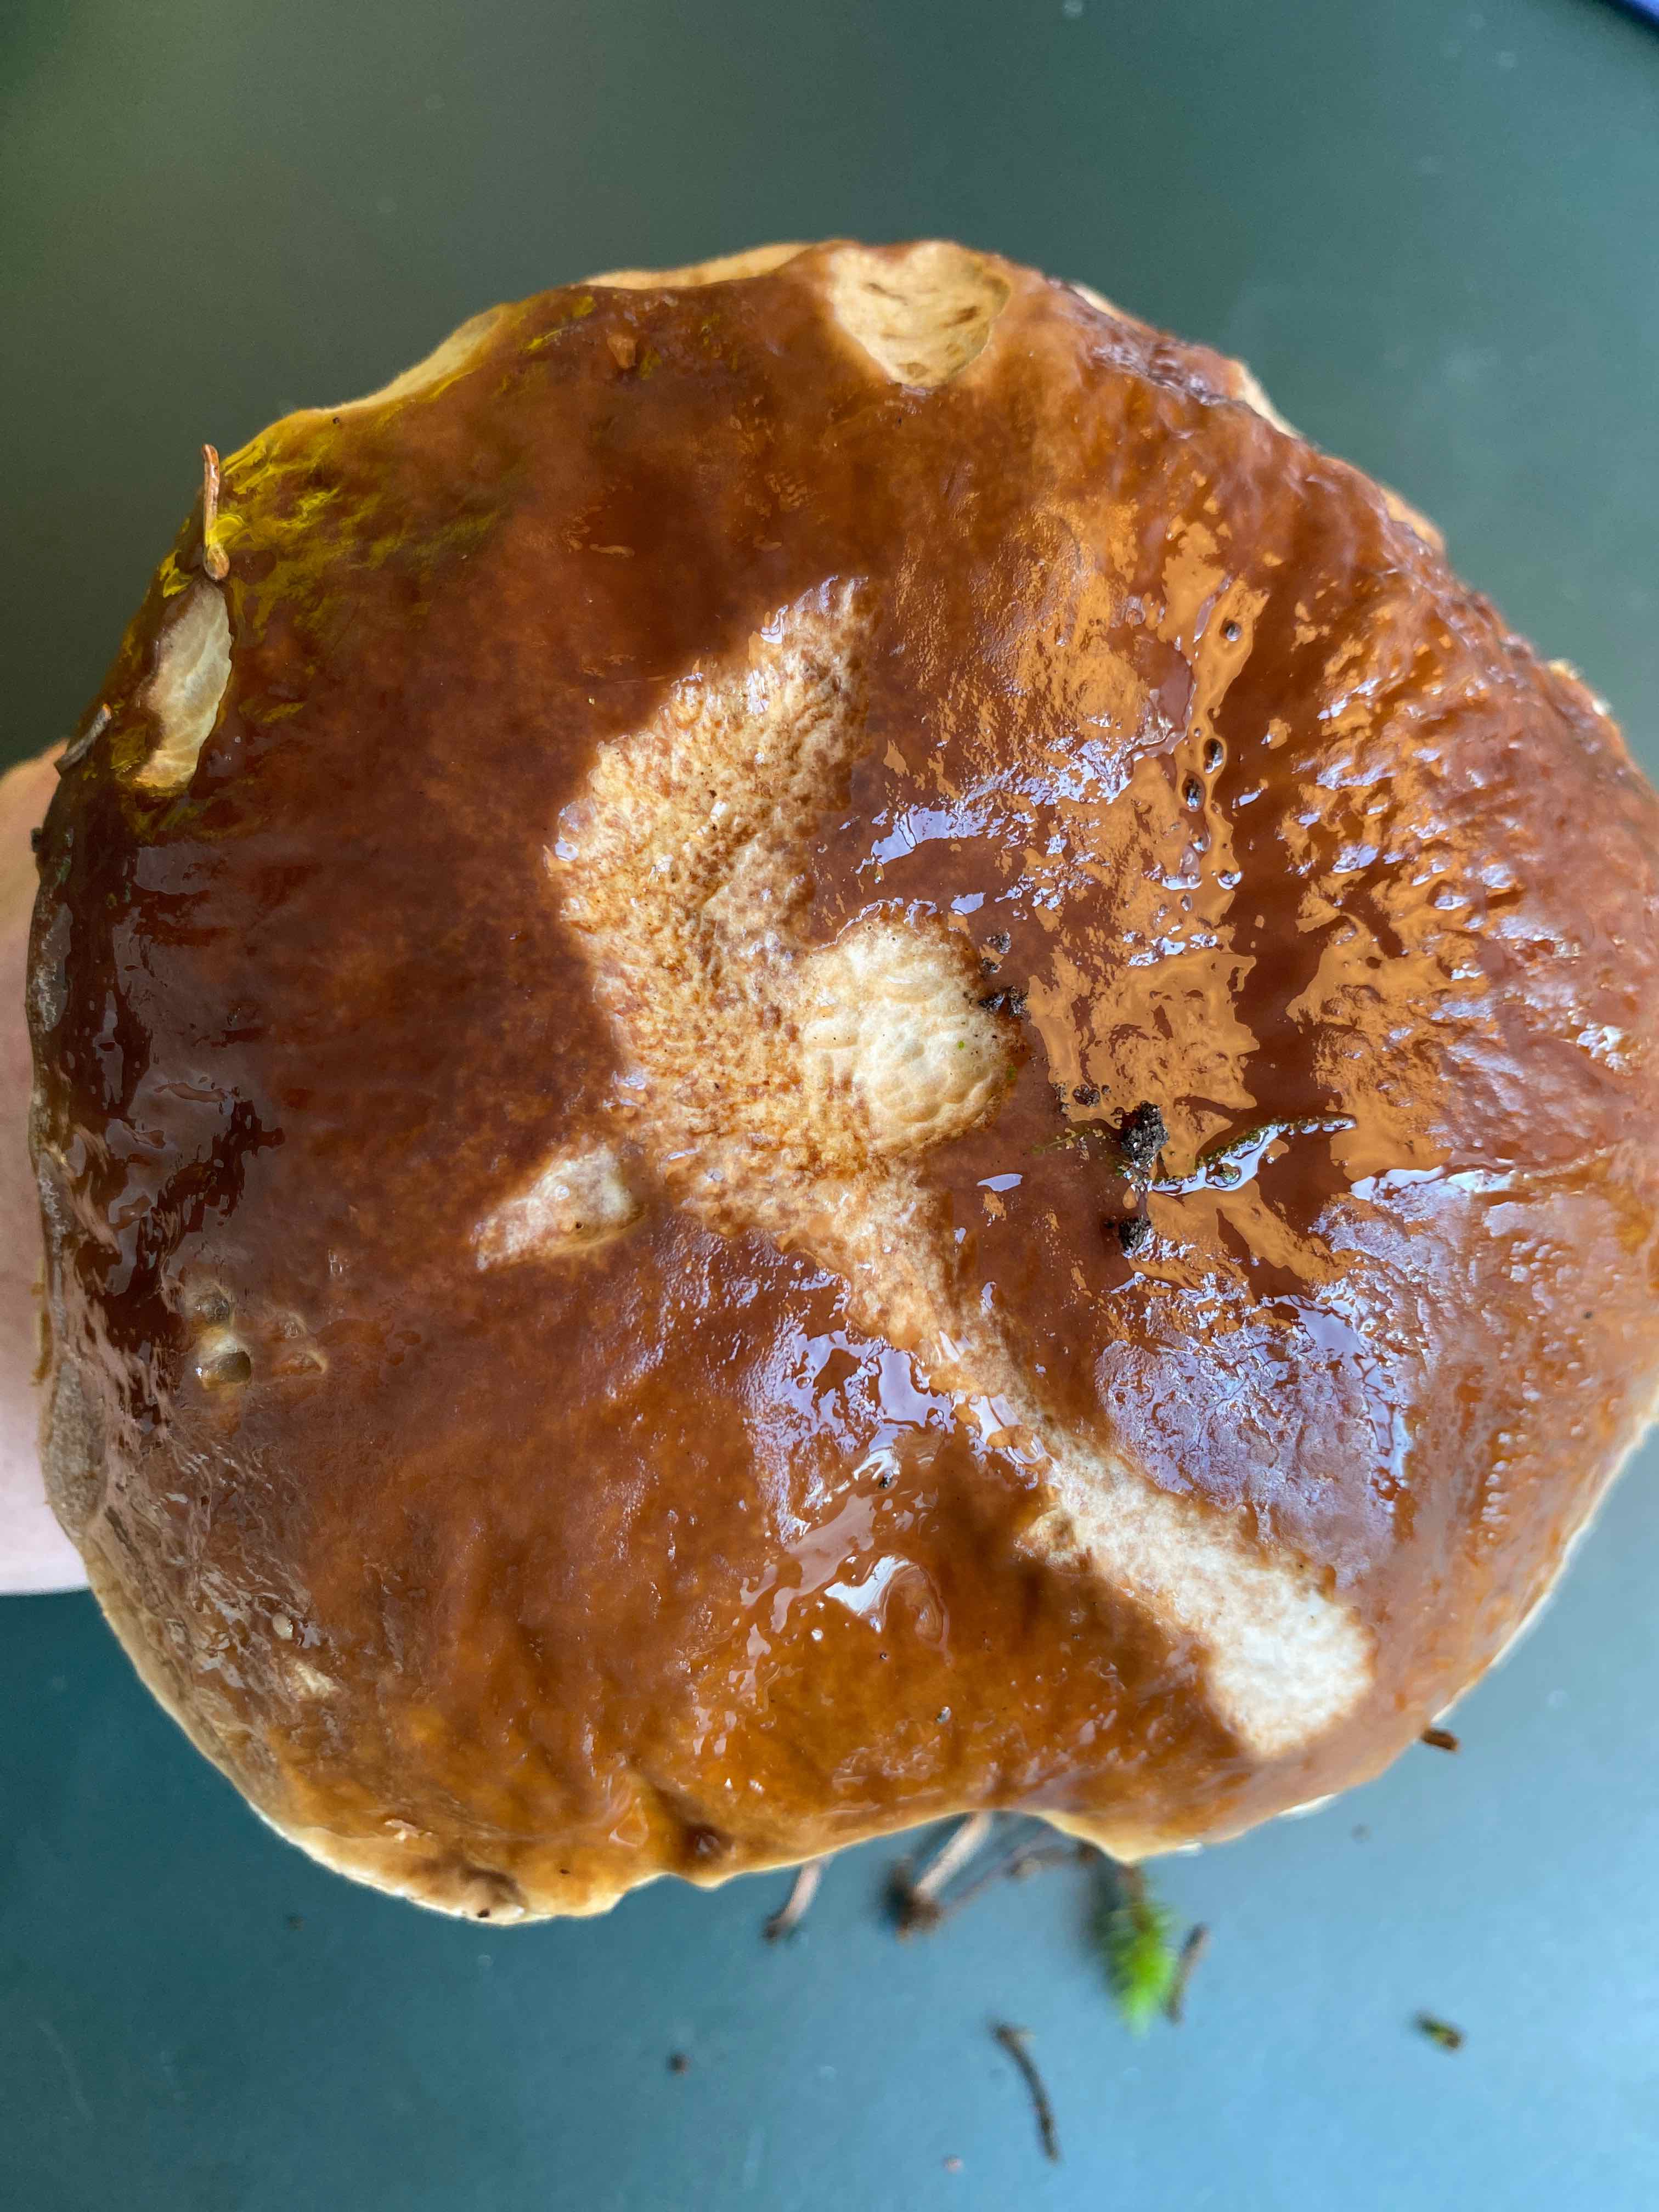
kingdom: Fungi
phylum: Basidiomycota
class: Agaricomycetes
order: Boletales
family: Boletaceae
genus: Boletus
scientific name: Boletus edulis
